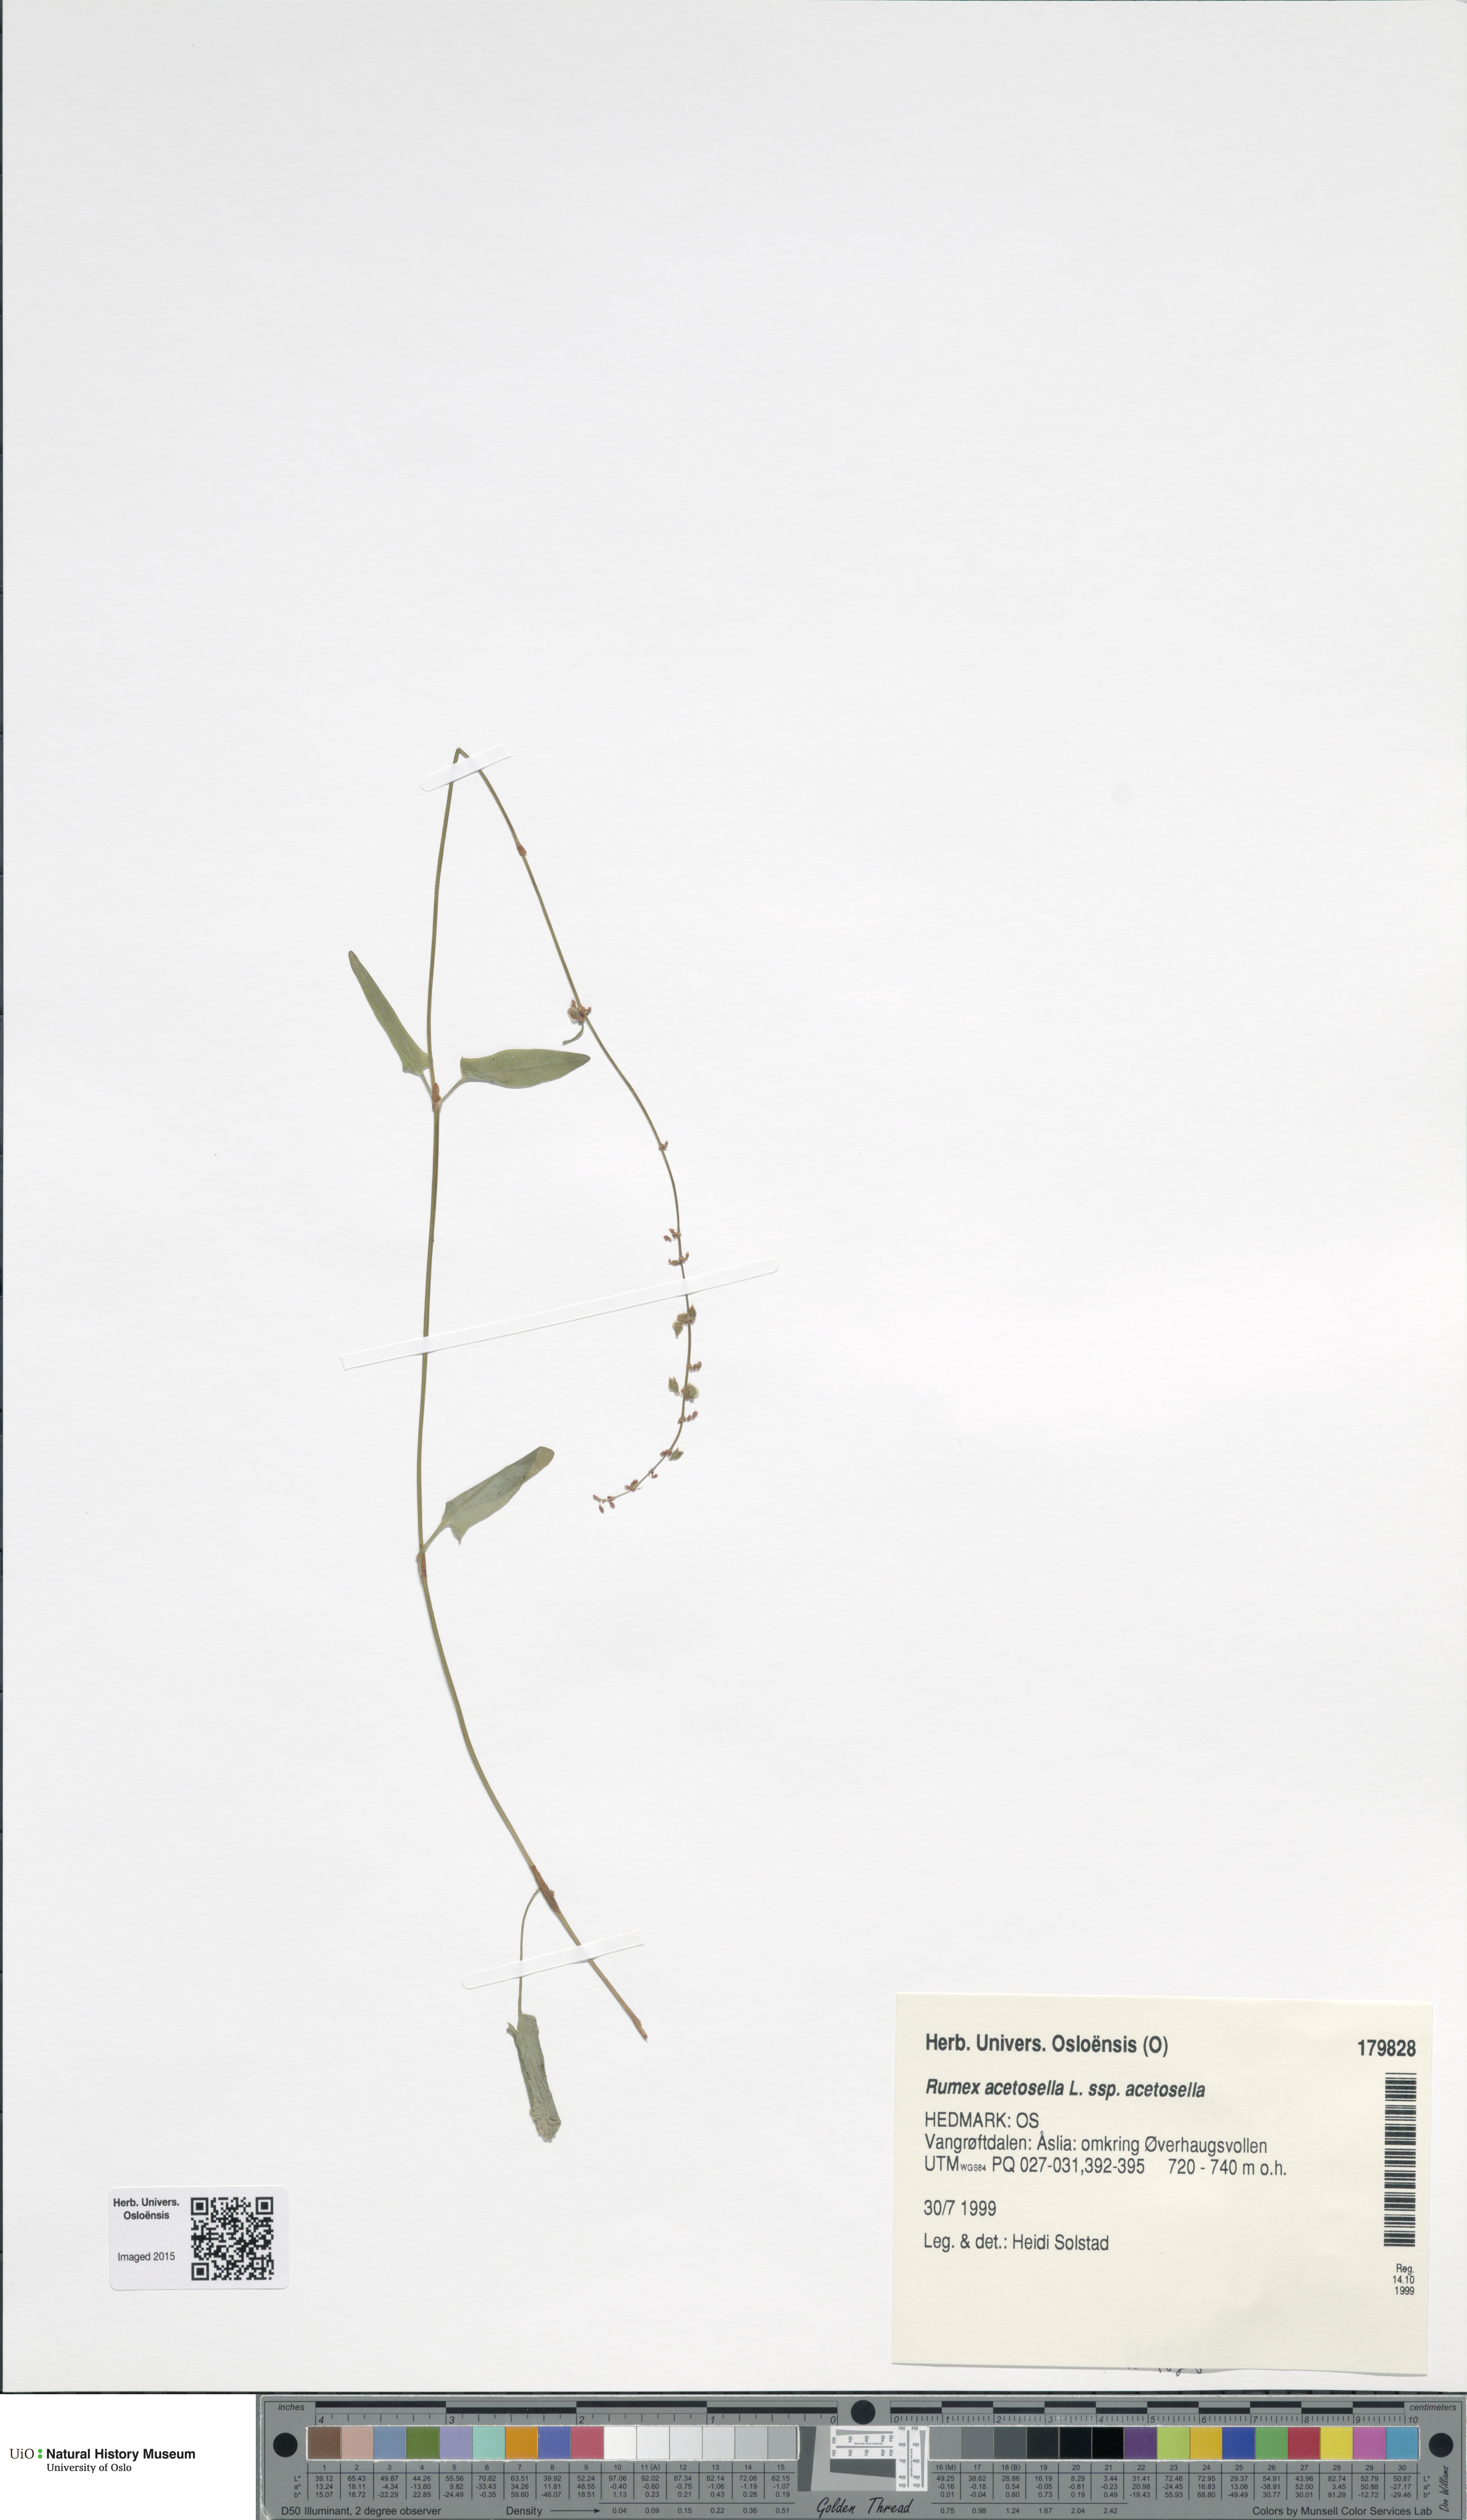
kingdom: Plantae
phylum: Tracheophyta
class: Magnoliopsida
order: Caryophyllales
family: Polygonaceae
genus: Rumex
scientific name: Rumex acetosella
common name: Common sheep sorrel
